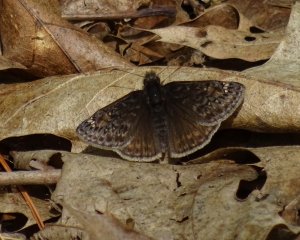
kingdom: Animalia
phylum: Arthropoda
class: Insecta
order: Lepidoptera
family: Hesperiidae
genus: Gesta
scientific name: Gesta
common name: Juvenal's Duskywing
